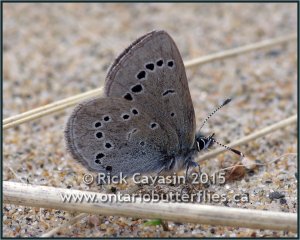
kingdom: Animalia
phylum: Arthropoda
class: Insecta
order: Lepidoptera
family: Lycaenidae
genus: Glaucopsyche
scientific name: Glaucopsyche lygdamus
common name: Silvery Blue
